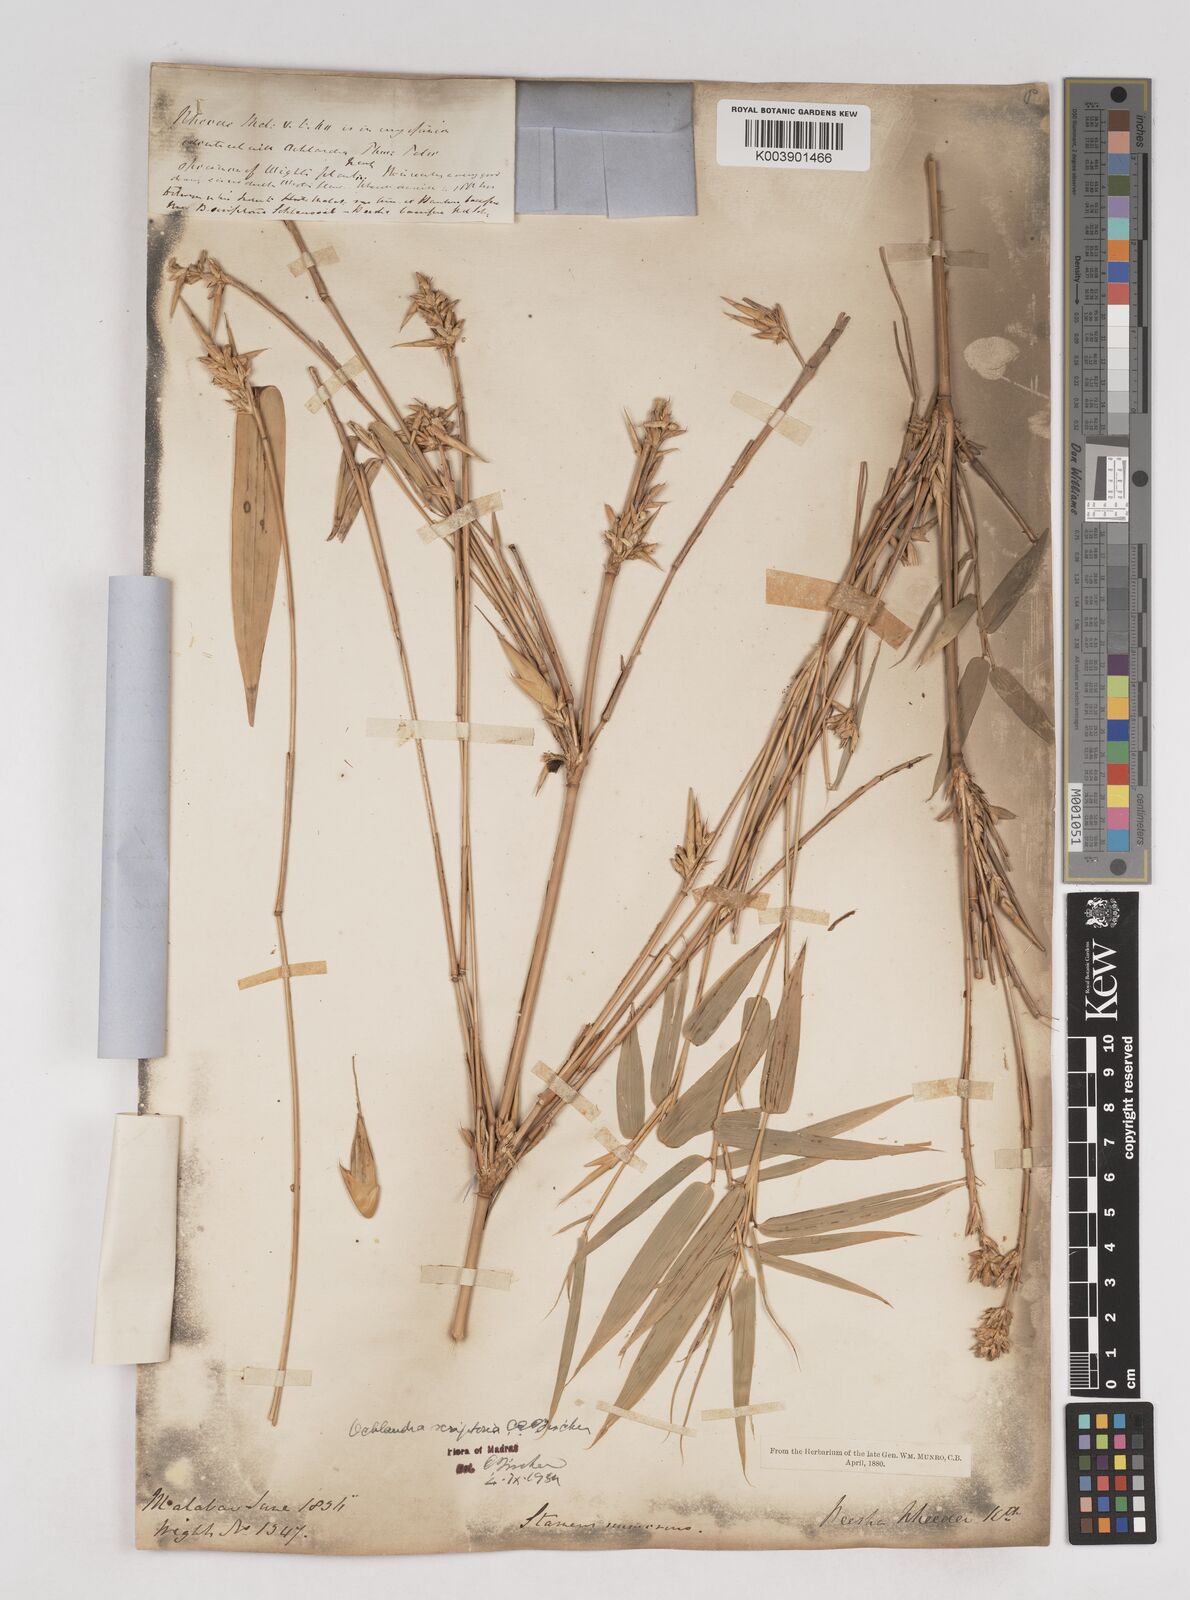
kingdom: Plantae
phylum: Tracheophyta
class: Liliopsida
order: Poales
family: Poaceae
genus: Ochlandra
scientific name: Ochlandra scriptoria
